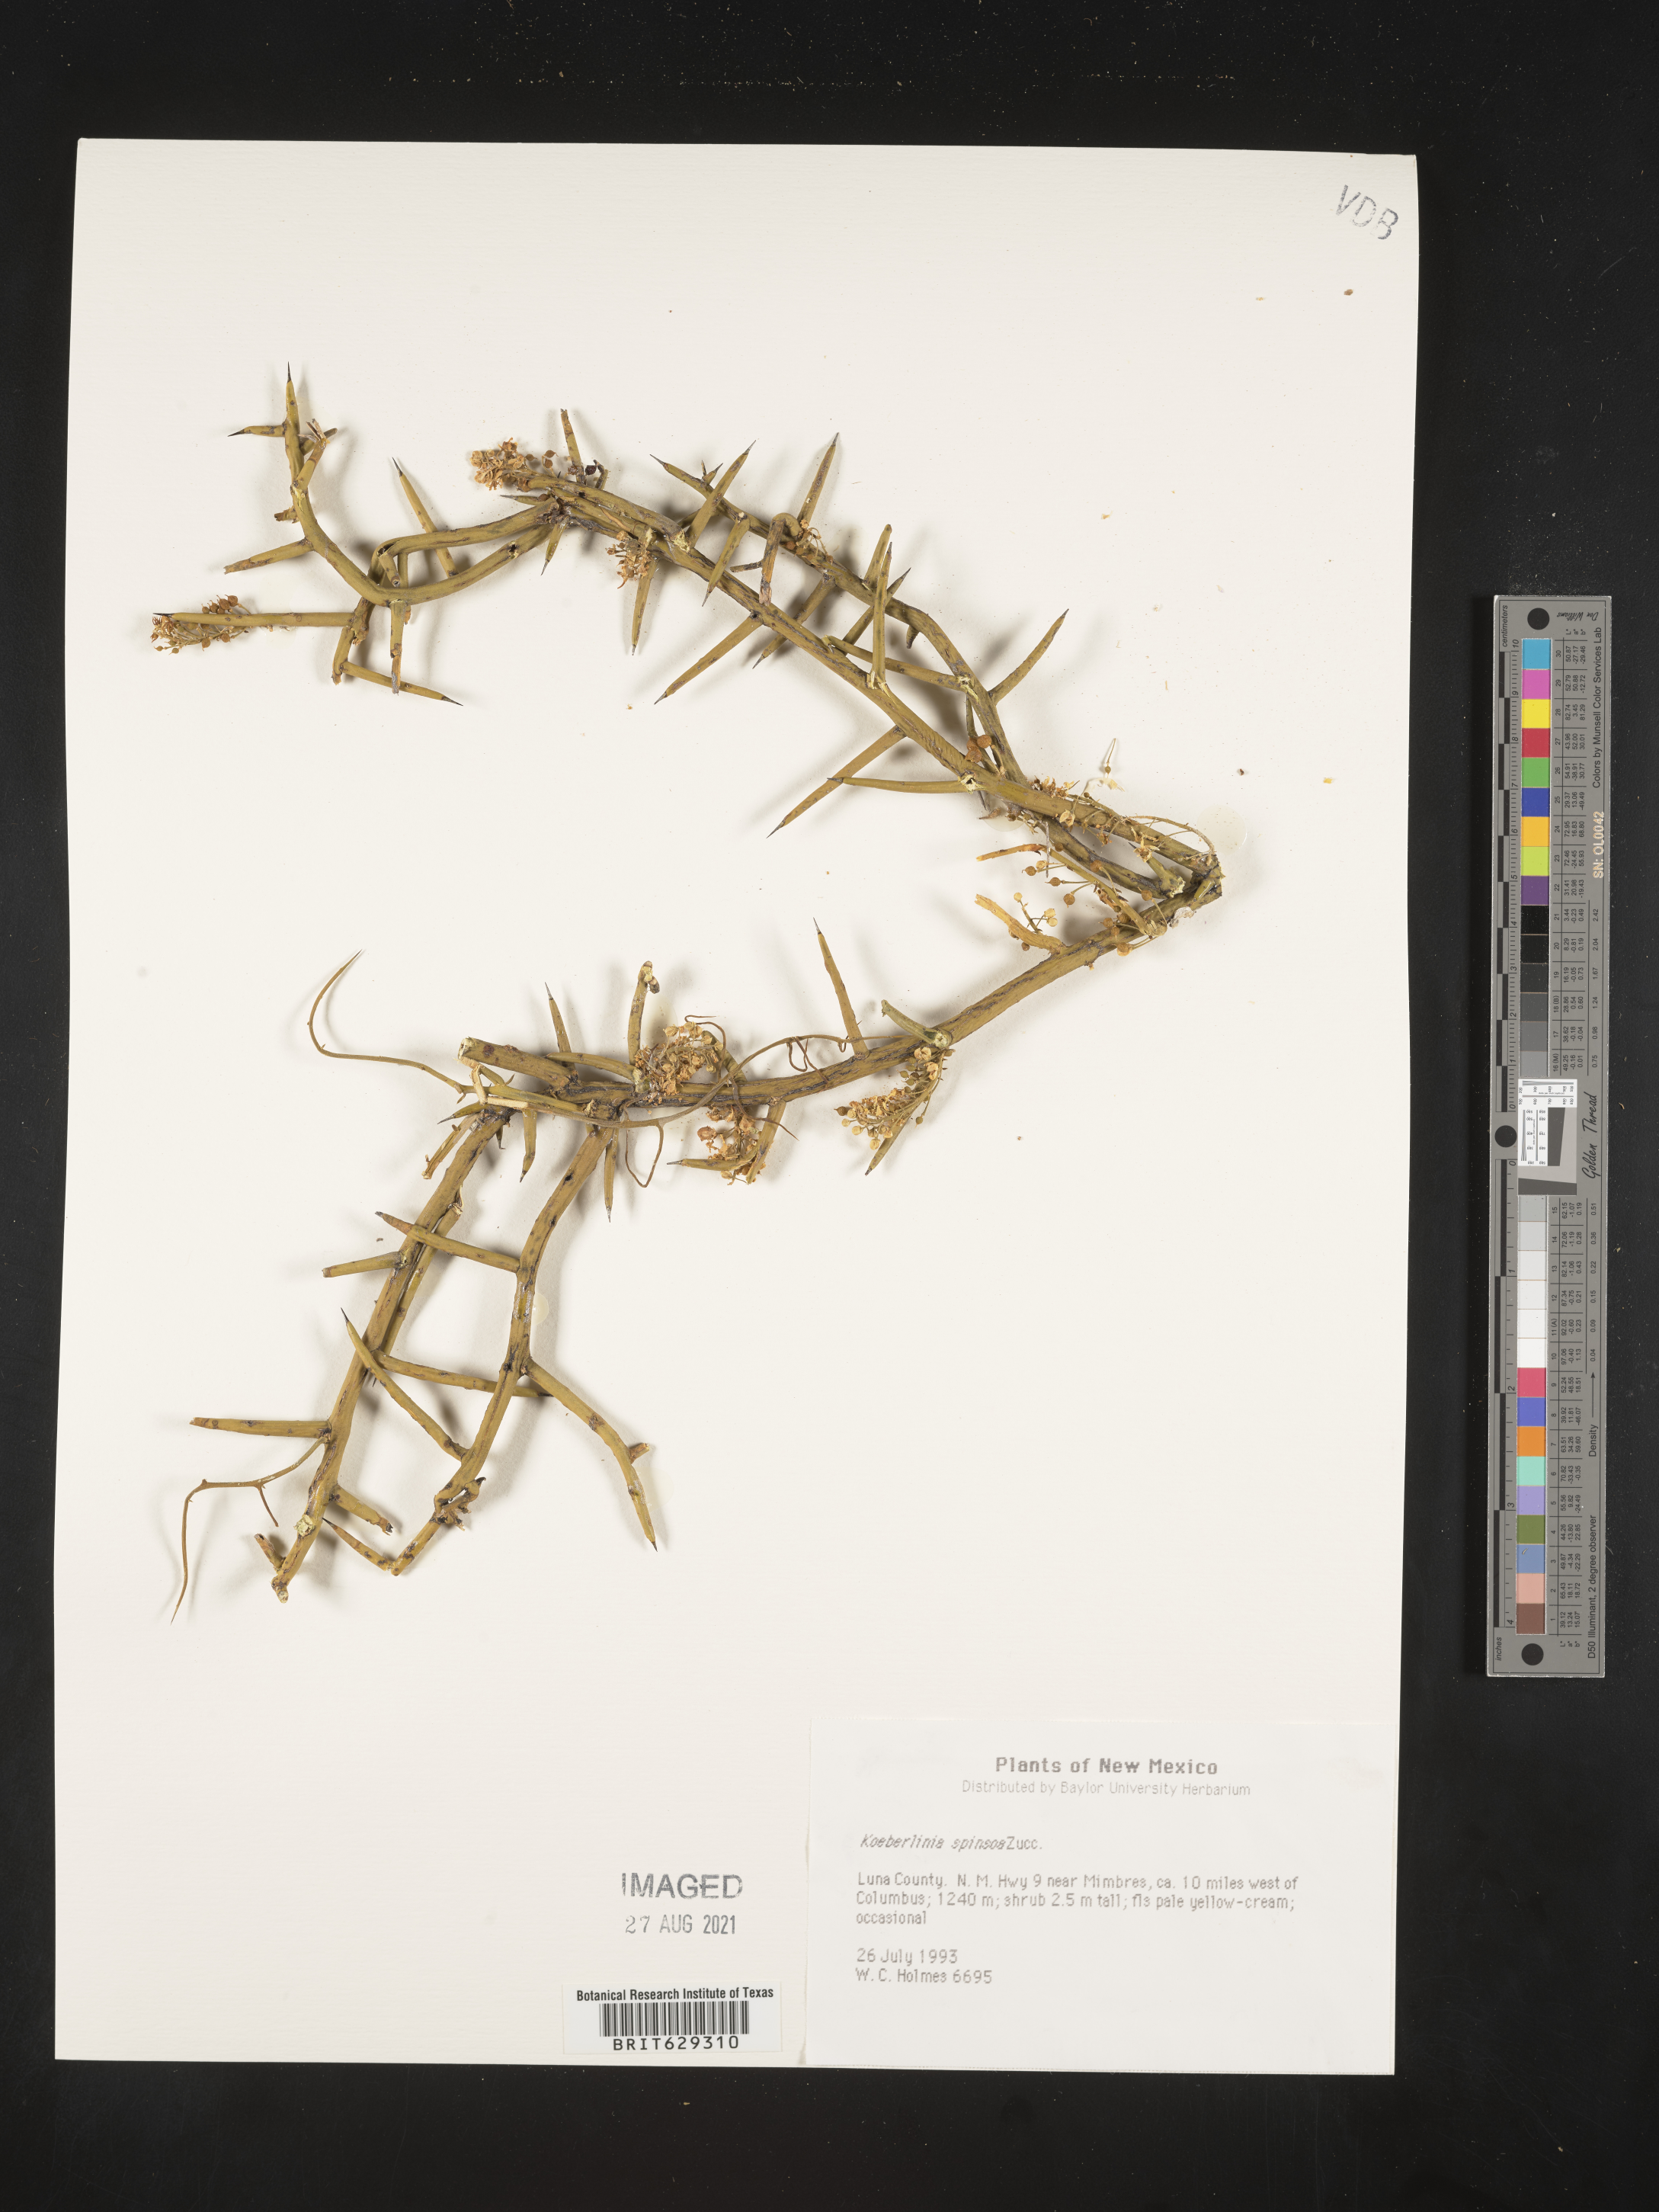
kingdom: Plantae
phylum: Tracheophyta
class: Magnoliopsida
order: Brassicales
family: Koeberliniaceae
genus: Koeberlinia
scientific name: Koeberlinia
